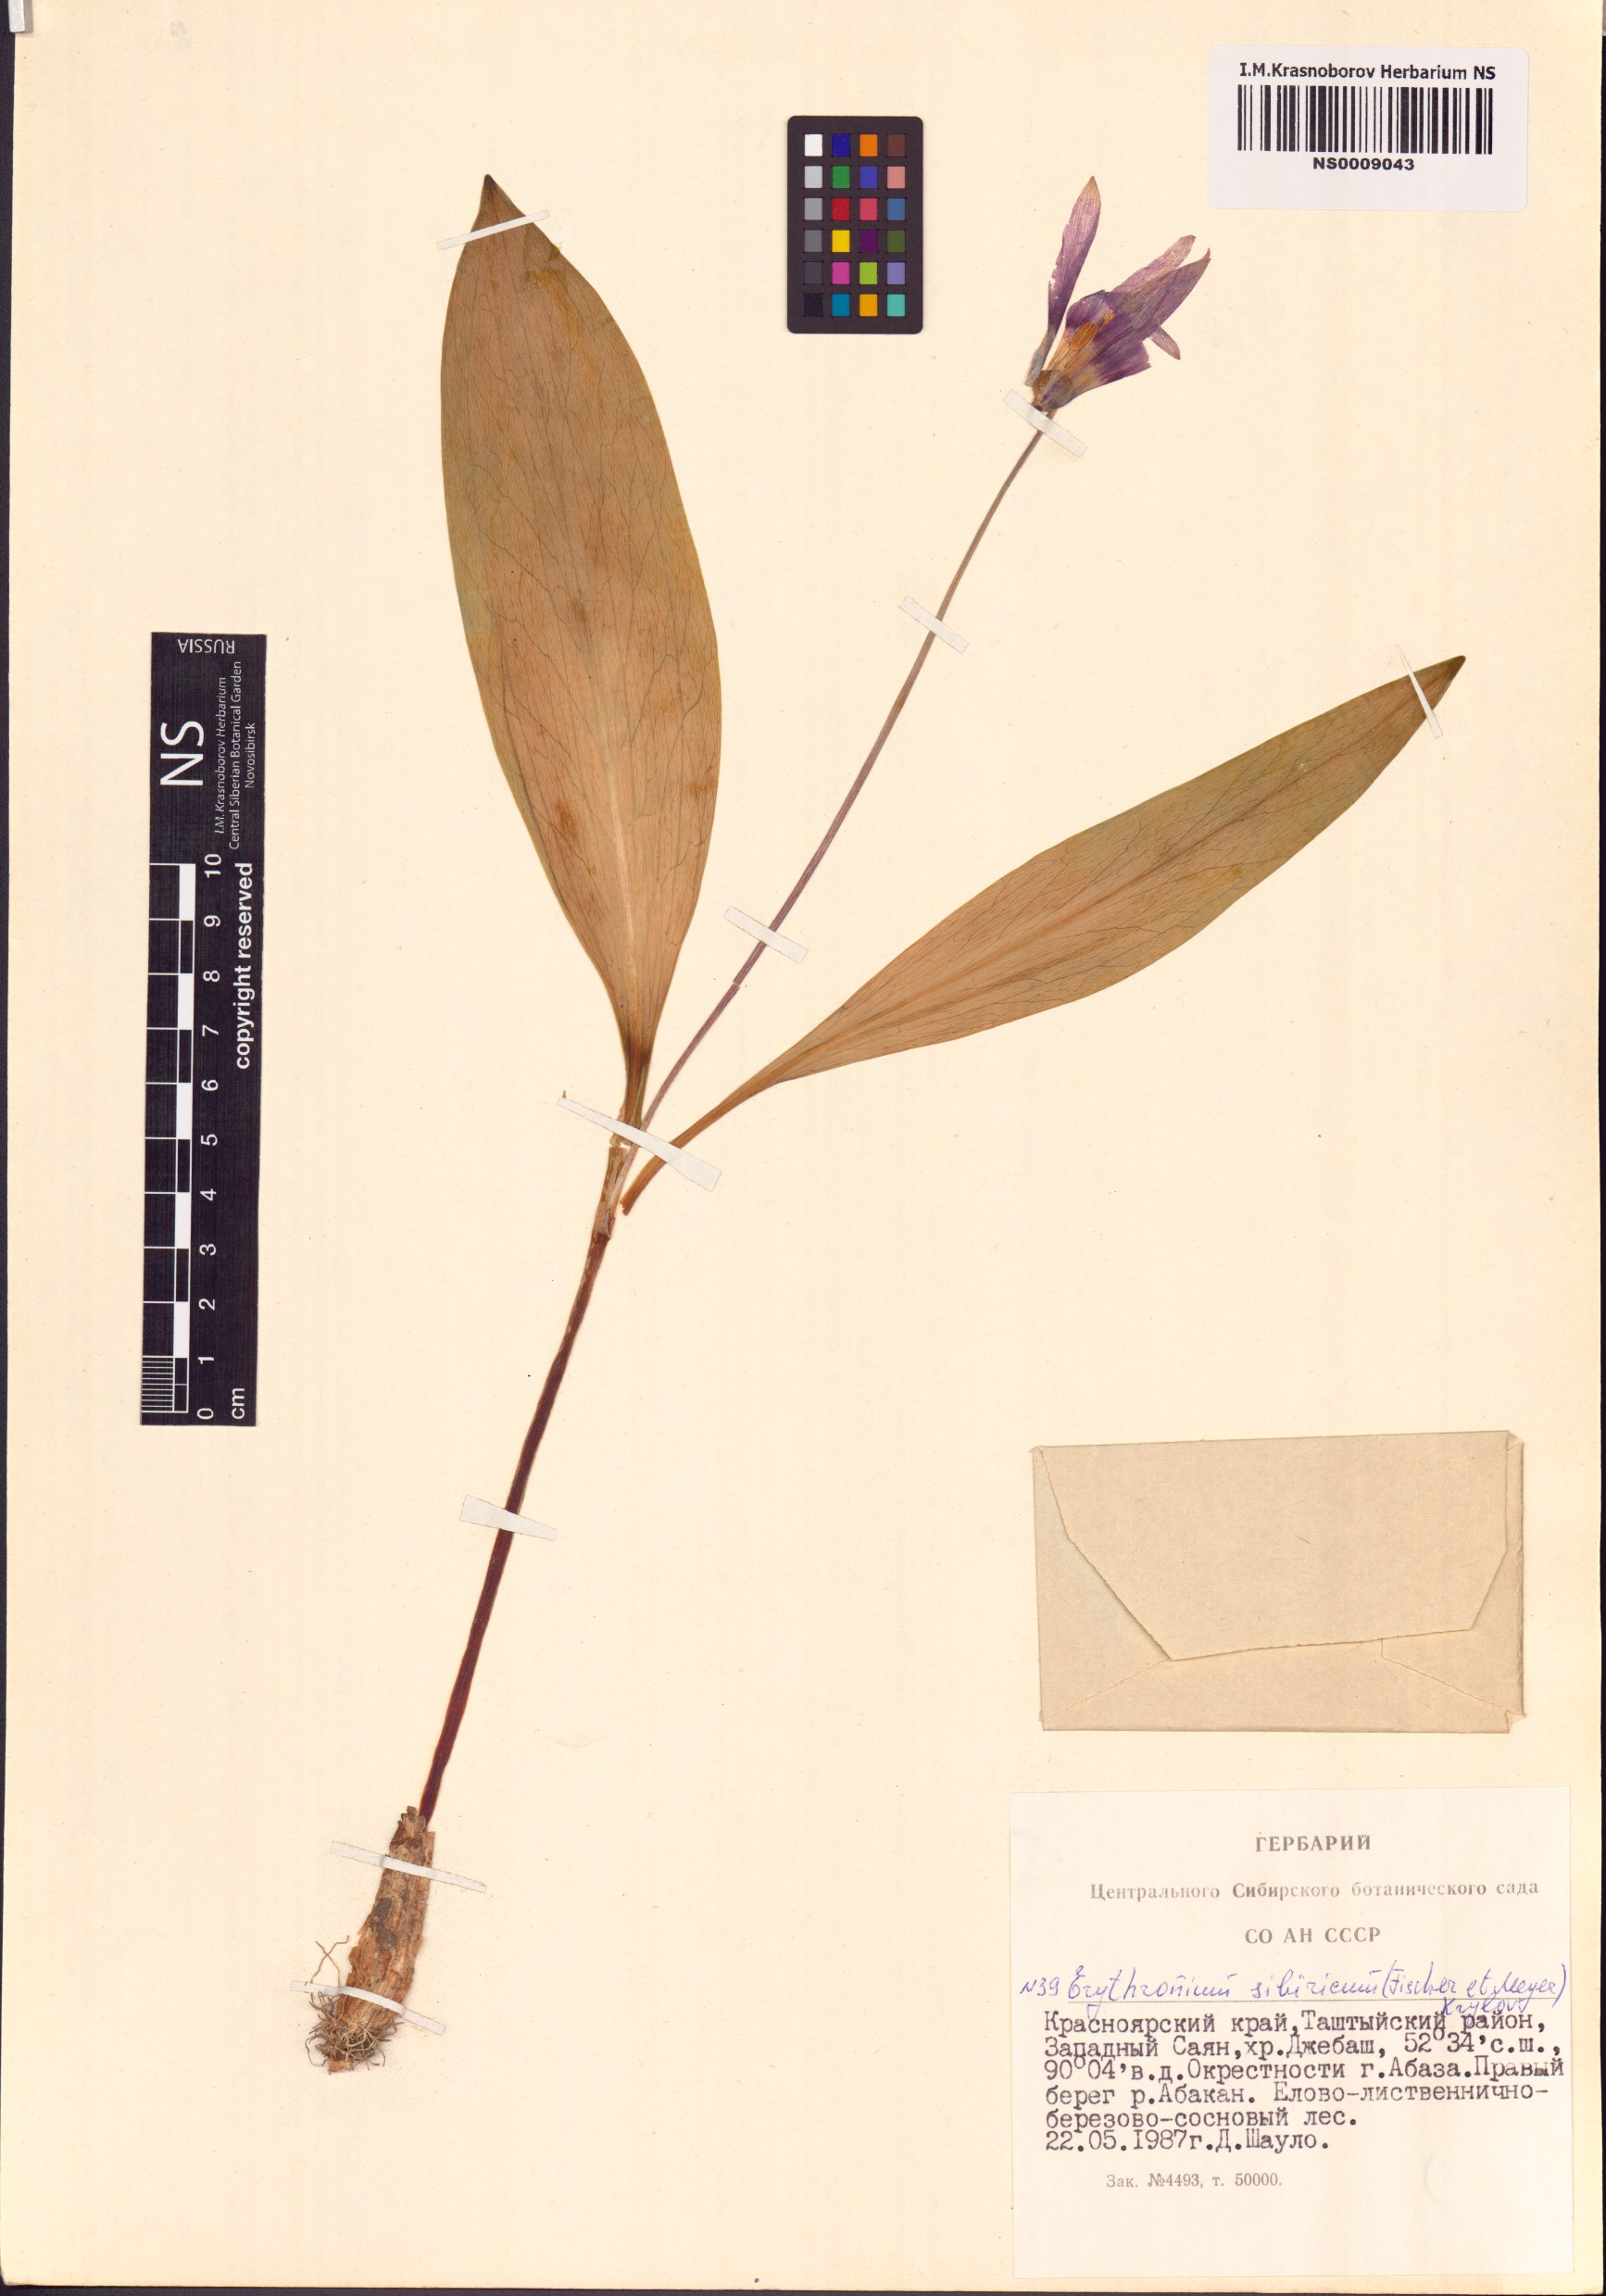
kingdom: Plantae
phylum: Tracheophyta
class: Liliopsida
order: Liliales
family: Liliaceae
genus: Erythronium
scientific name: Erythronium sibiricum
